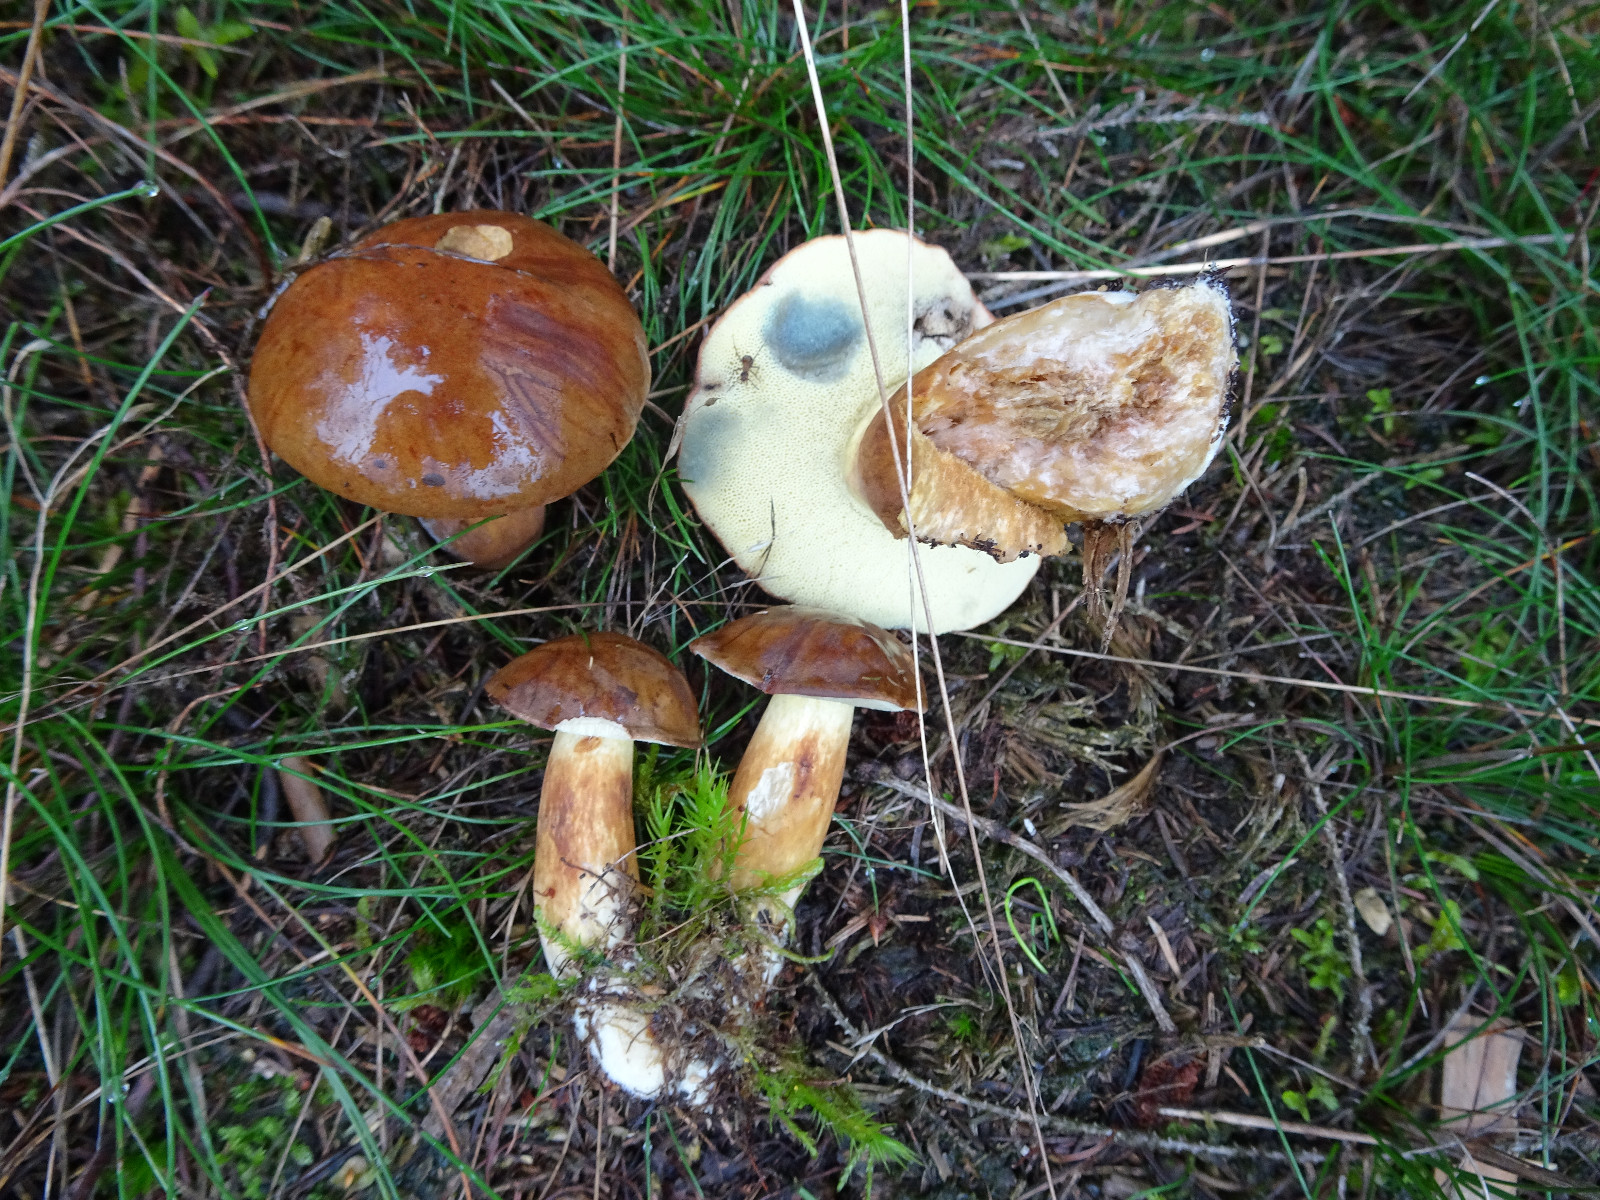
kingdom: Fungi
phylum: Basidiomycota
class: Agaricomycetes
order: Boletales
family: Boletaceae
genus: Imleria
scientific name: Imleria badia
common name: brunstokket rørhat
